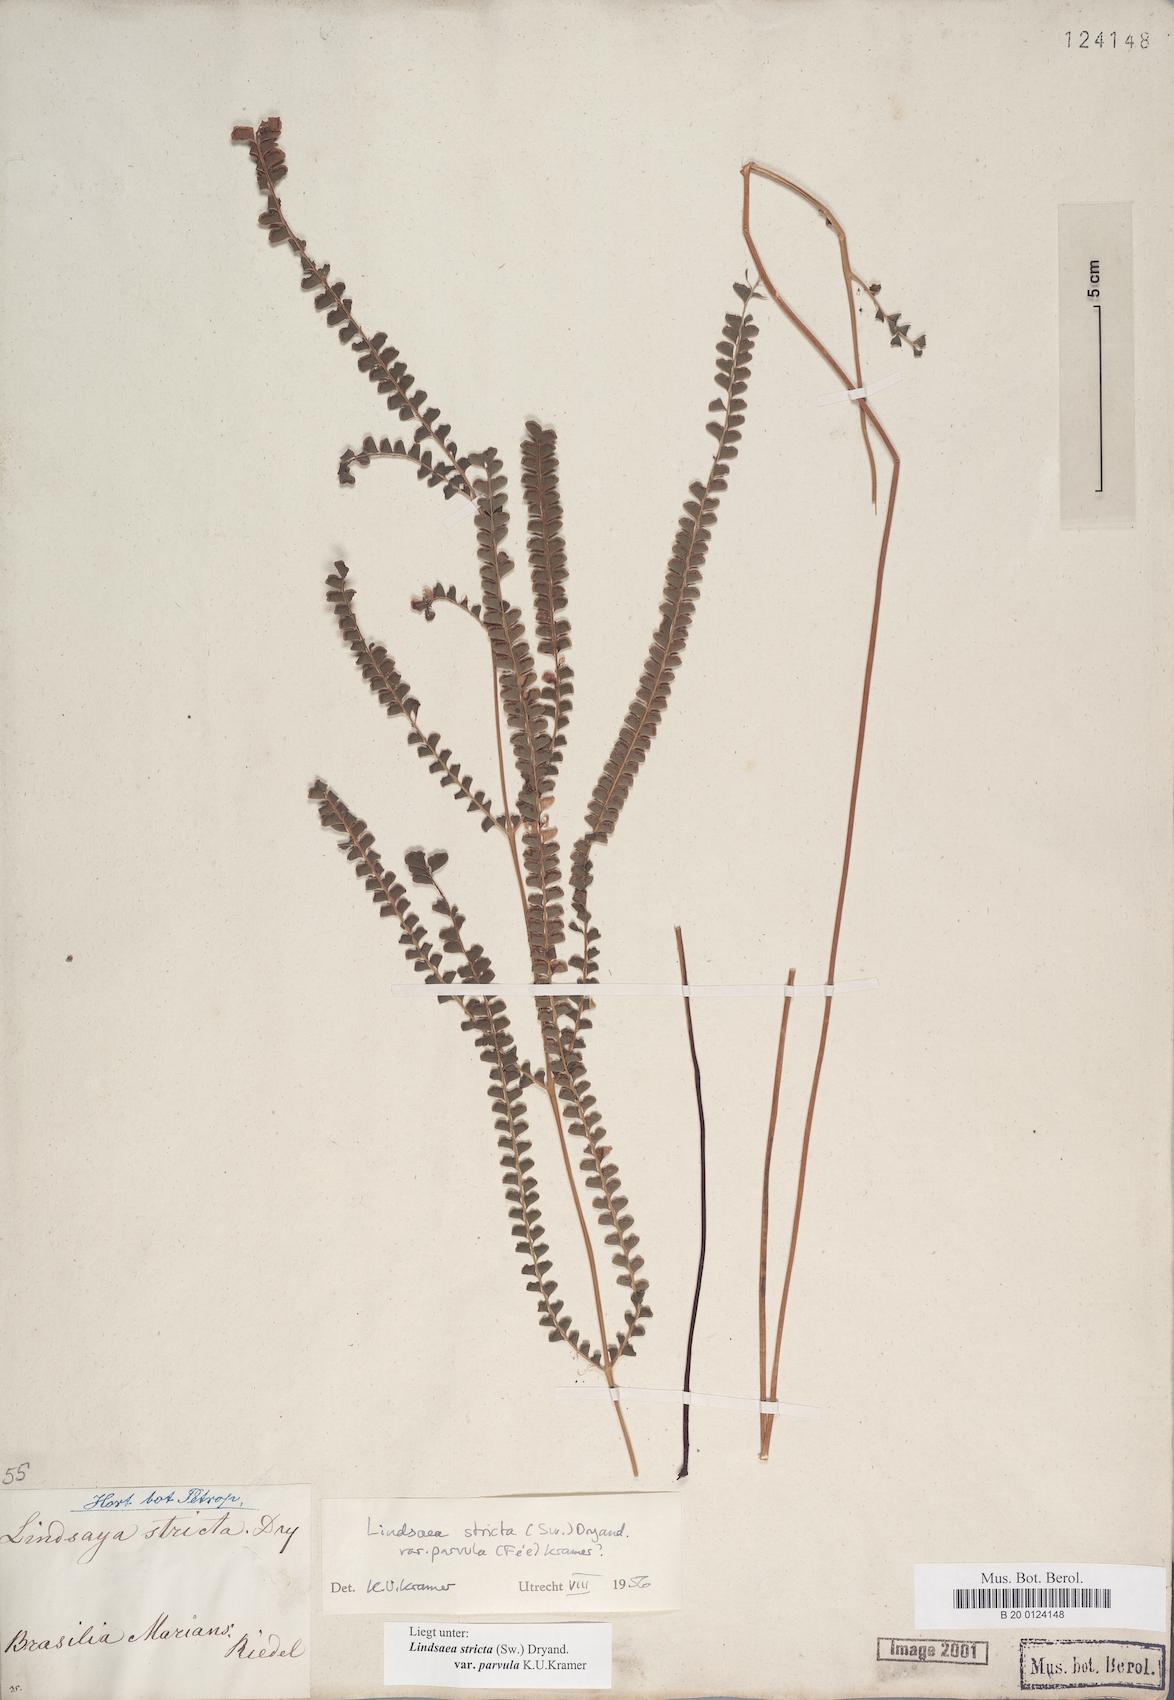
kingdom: Plantae
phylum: Tracheophyta
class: Polypodiopsida
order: Polypodiales
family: Lindsaeaceae
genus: Lindsaea
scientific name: Lindsaea stricta
